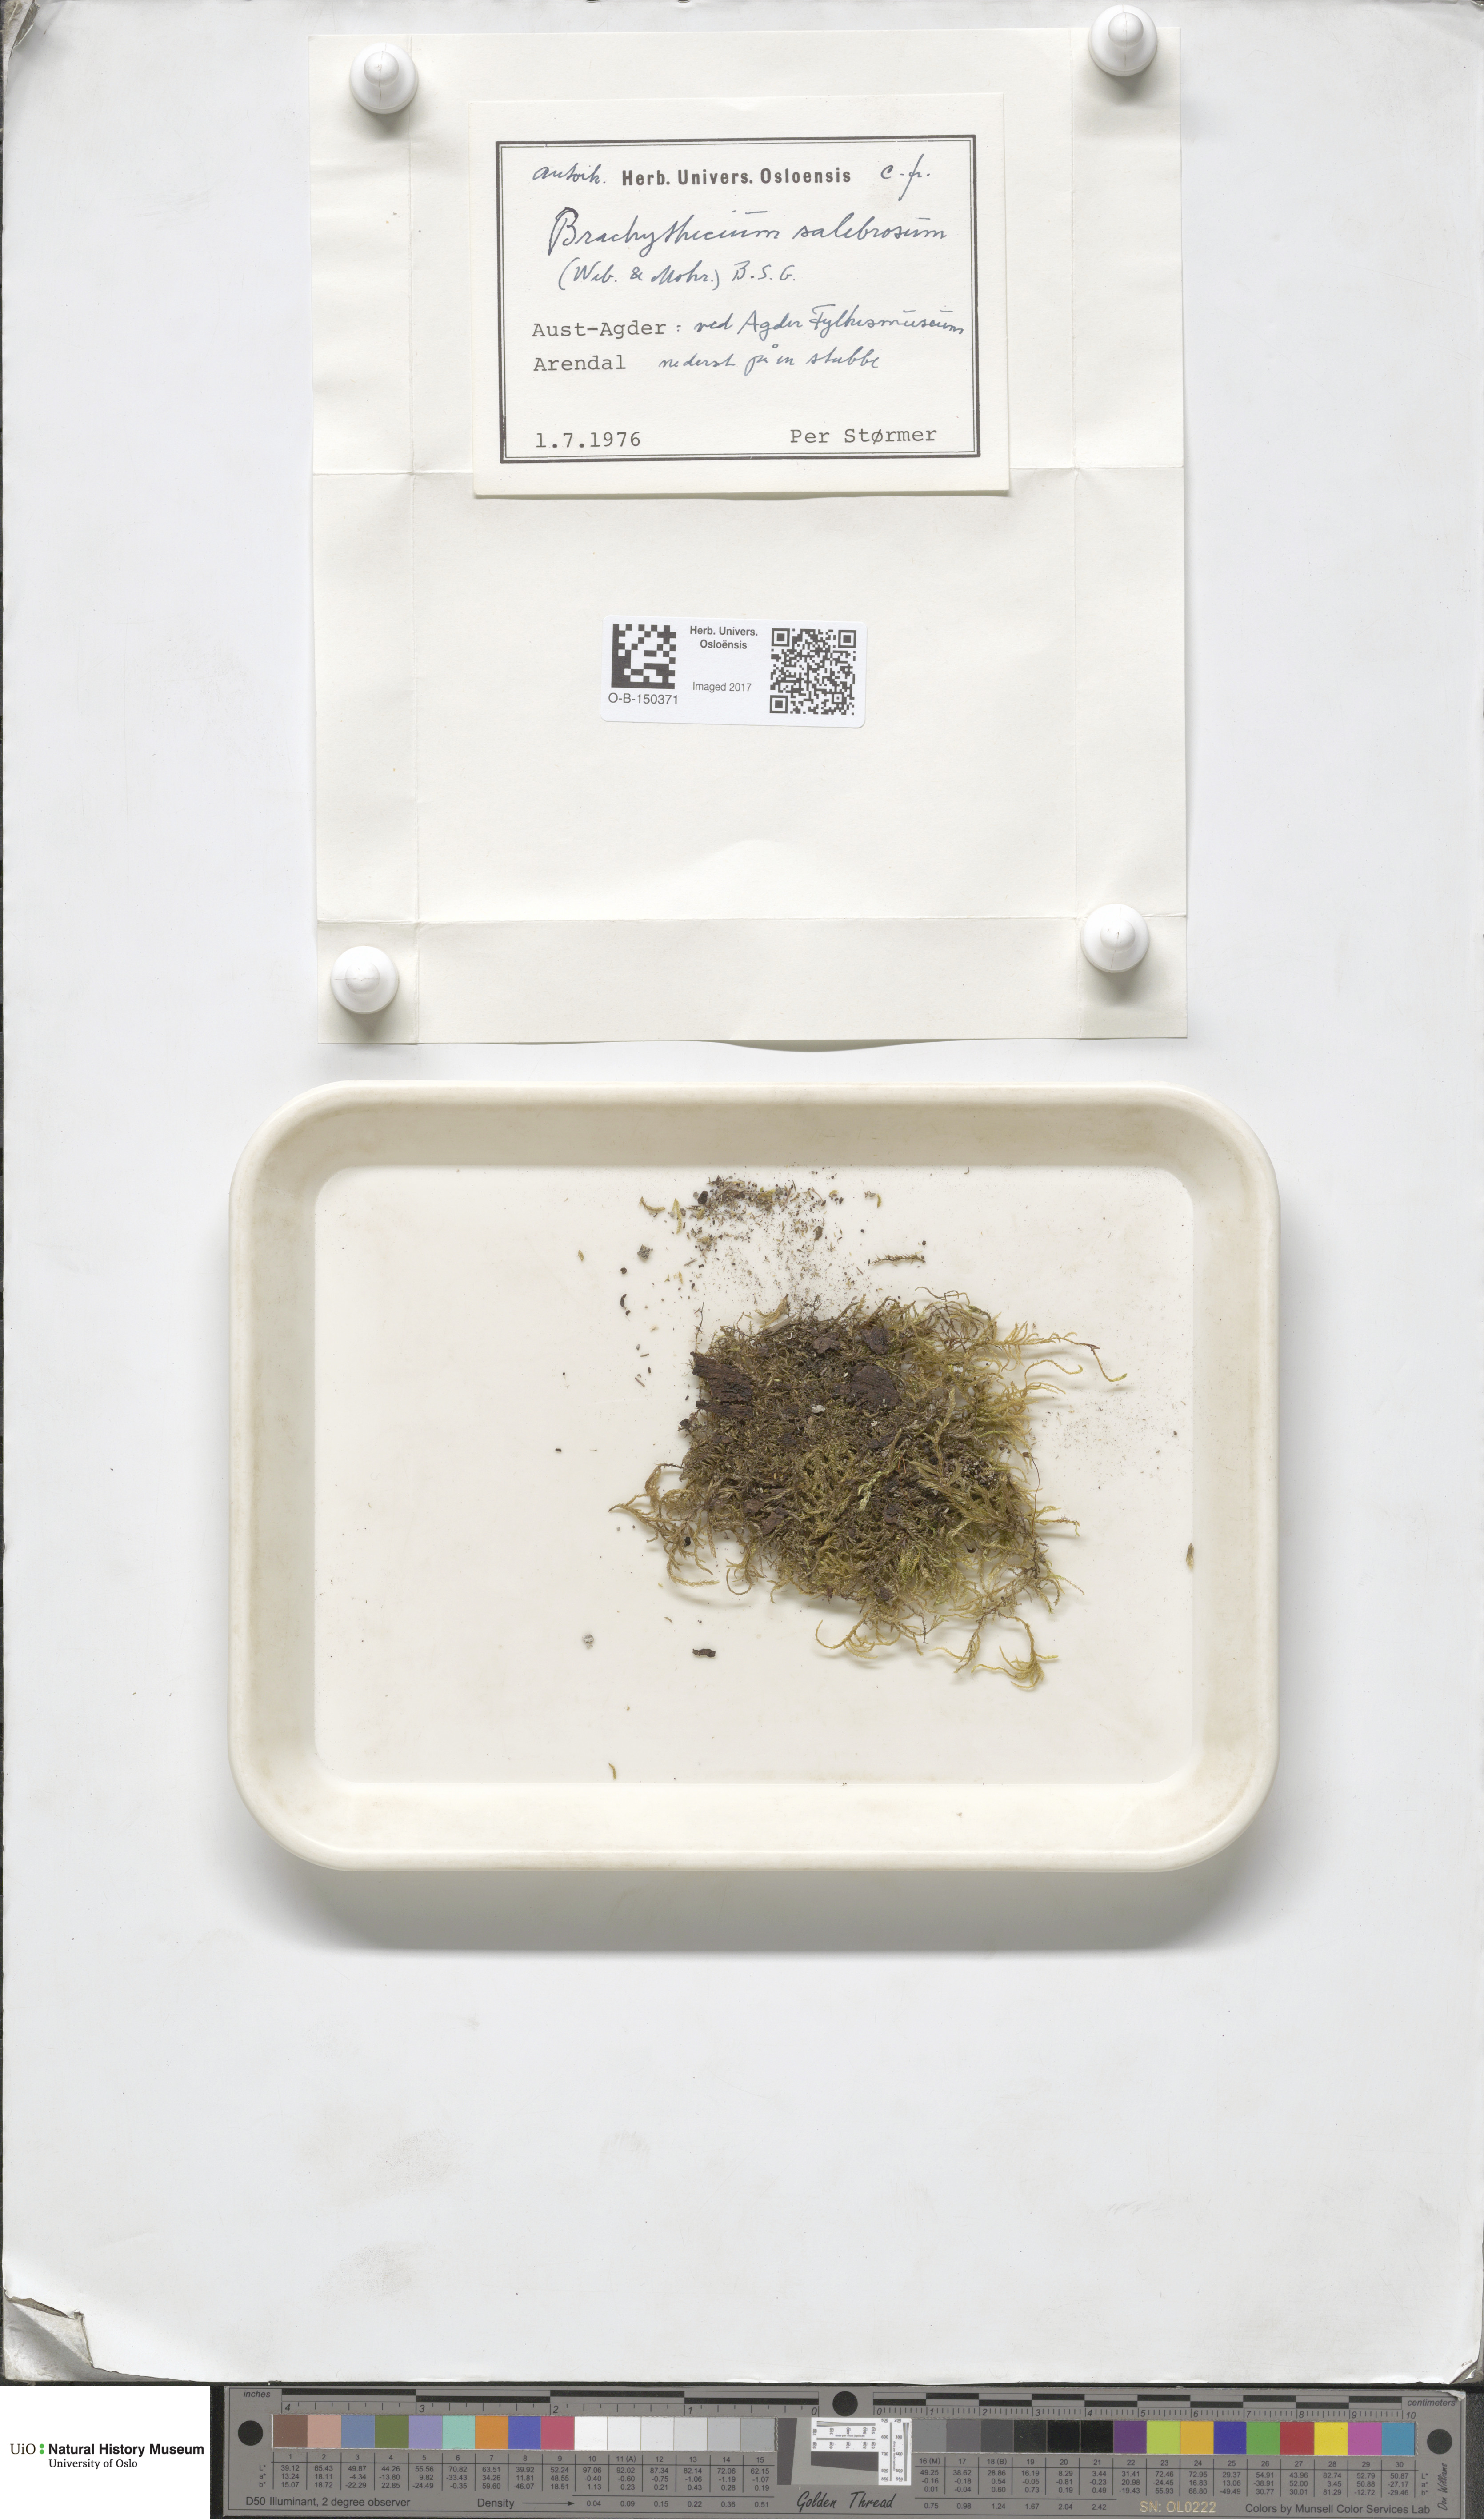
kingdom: Plantae
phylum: Bryophyta
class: Bryopsida
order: Hypnales
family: Brachytheciaceae
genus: Brachythecium
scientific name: Brachythecium salebrosum
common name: Smooth-stalk feather-moss
